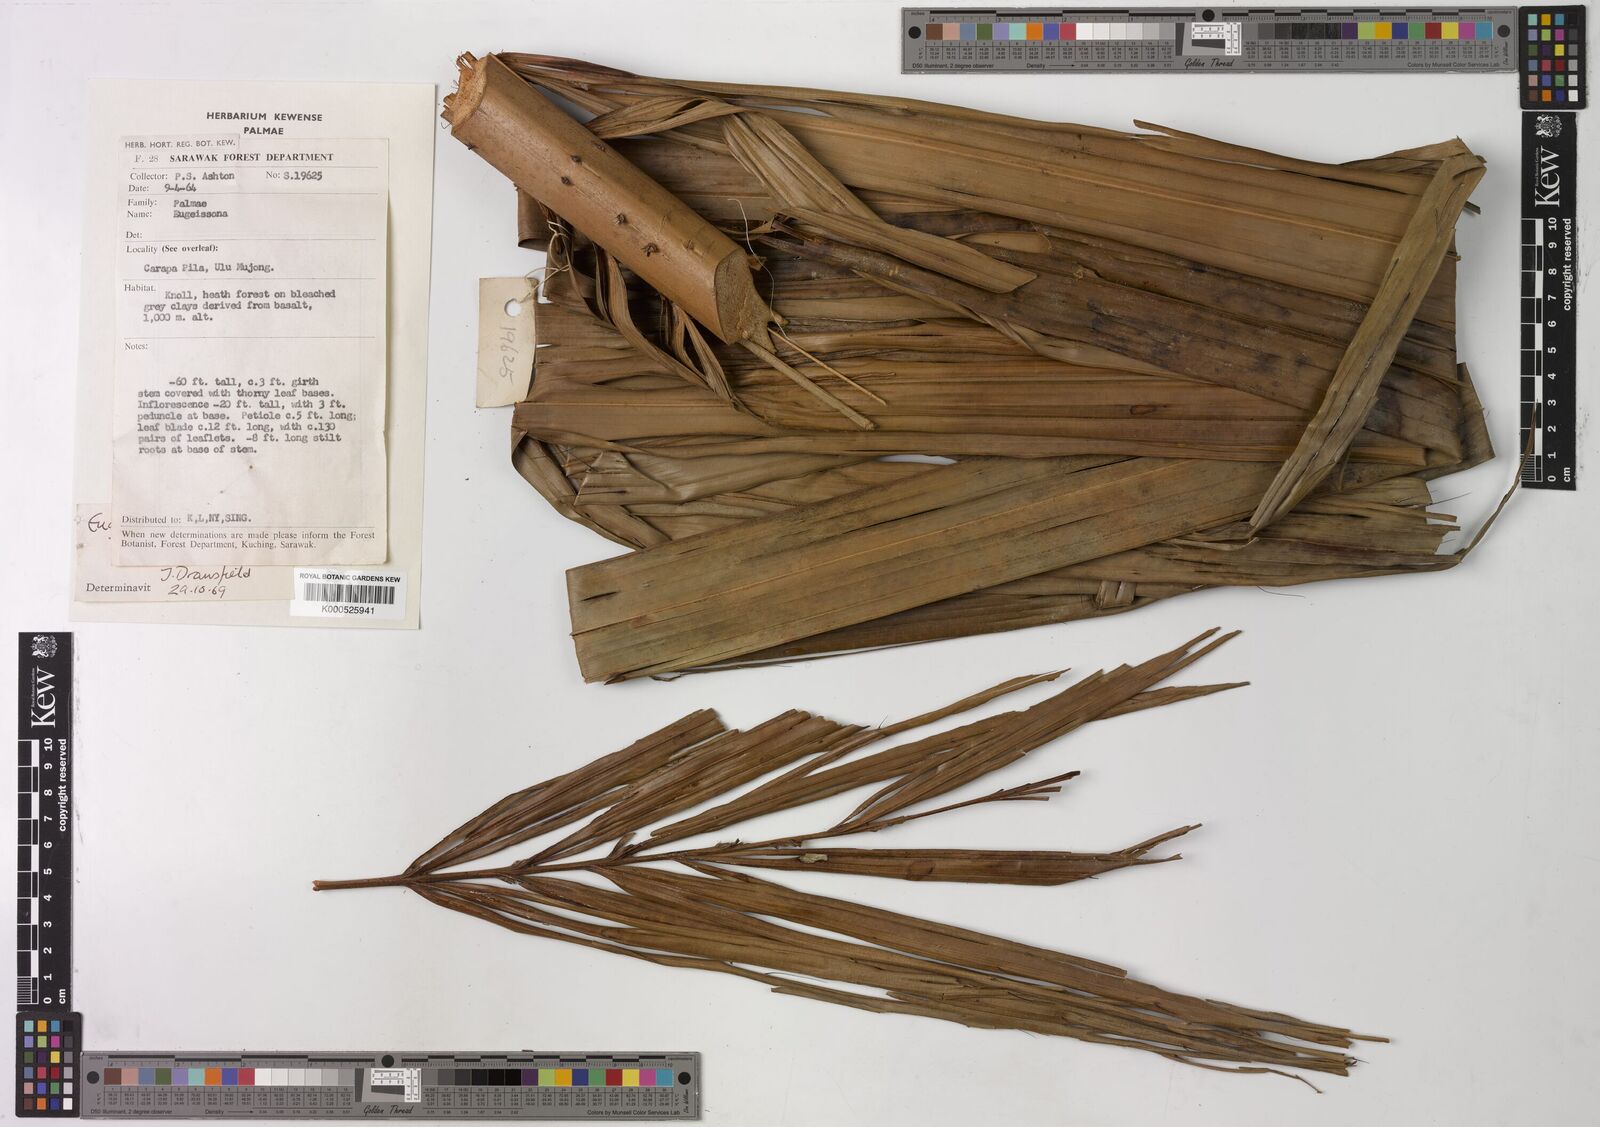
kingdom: Plantae
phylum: Tracheophyta
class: Liliopsida
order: Arecales
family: Arecaceae
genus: Eugeissona
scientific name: Eugeissona utilis
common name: Wild bornean sago palm
